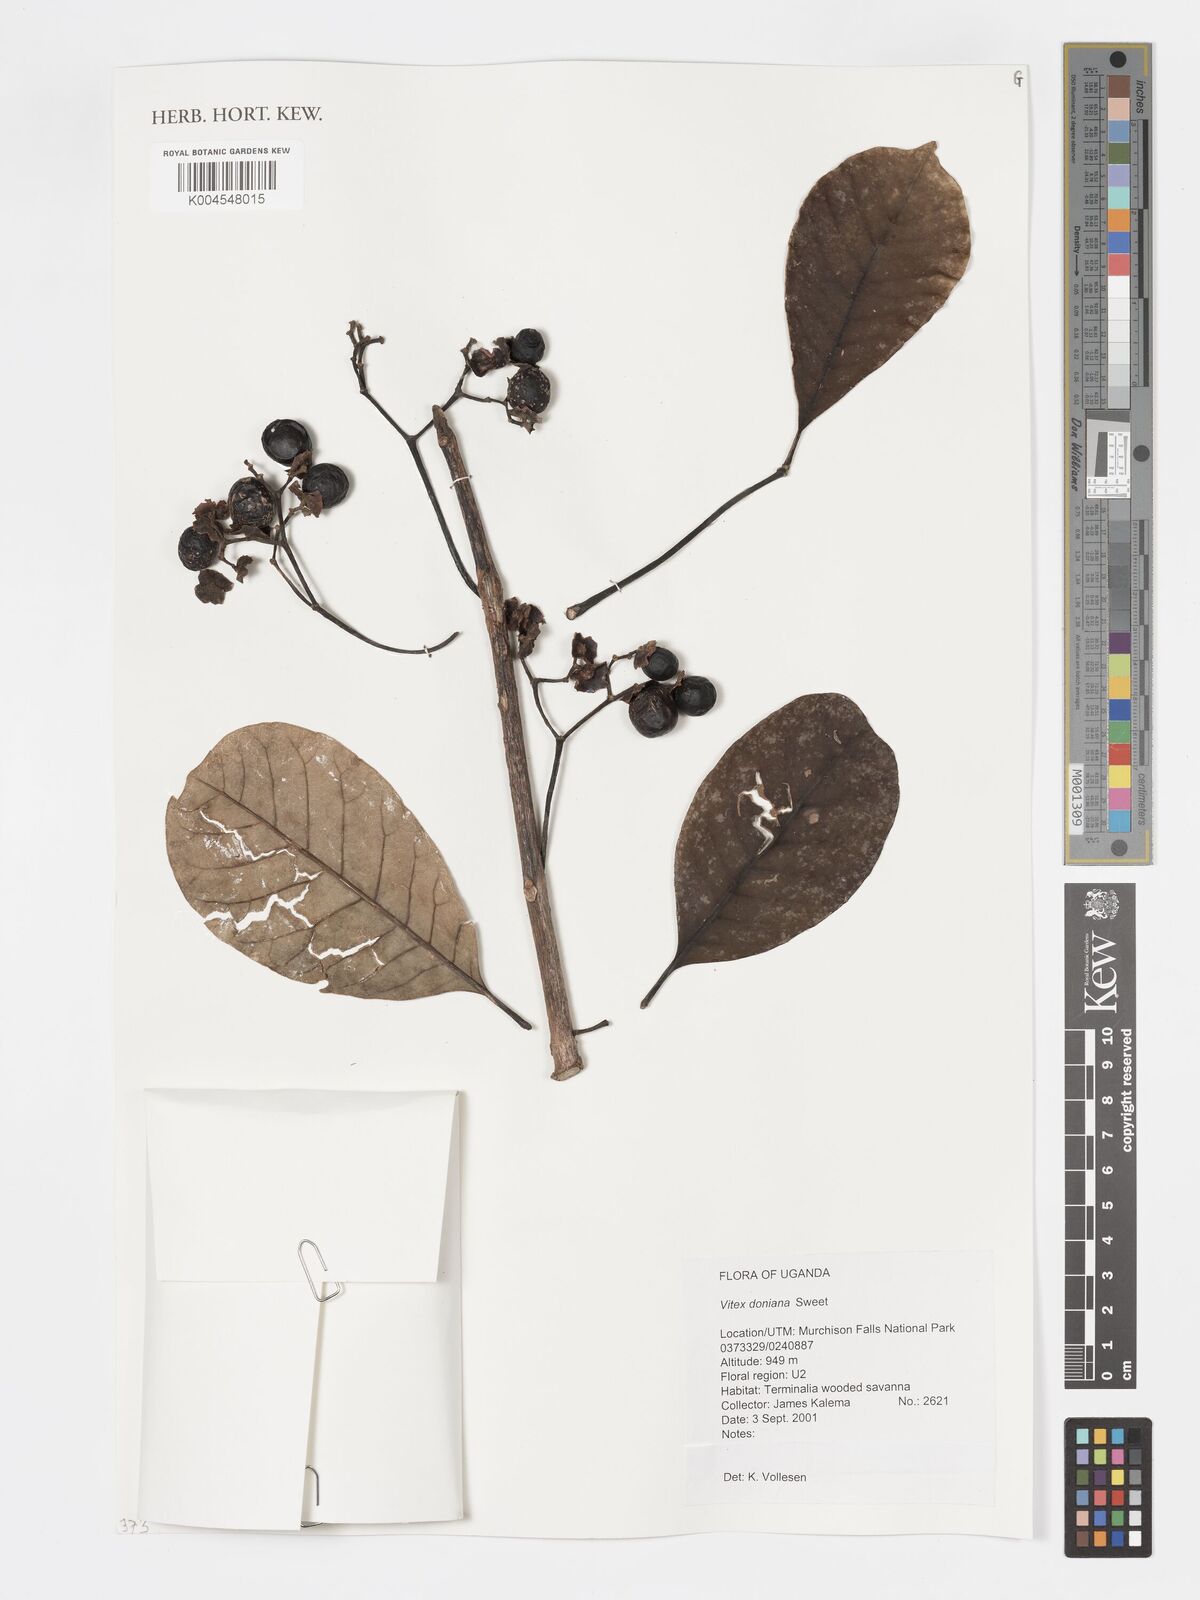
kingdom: Plantae
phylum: Tracheophyta
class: Magnoliopsida
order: Lamiales
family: Lamiaceae
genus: Vitex
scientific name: Vitex doniana
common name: Black plum
